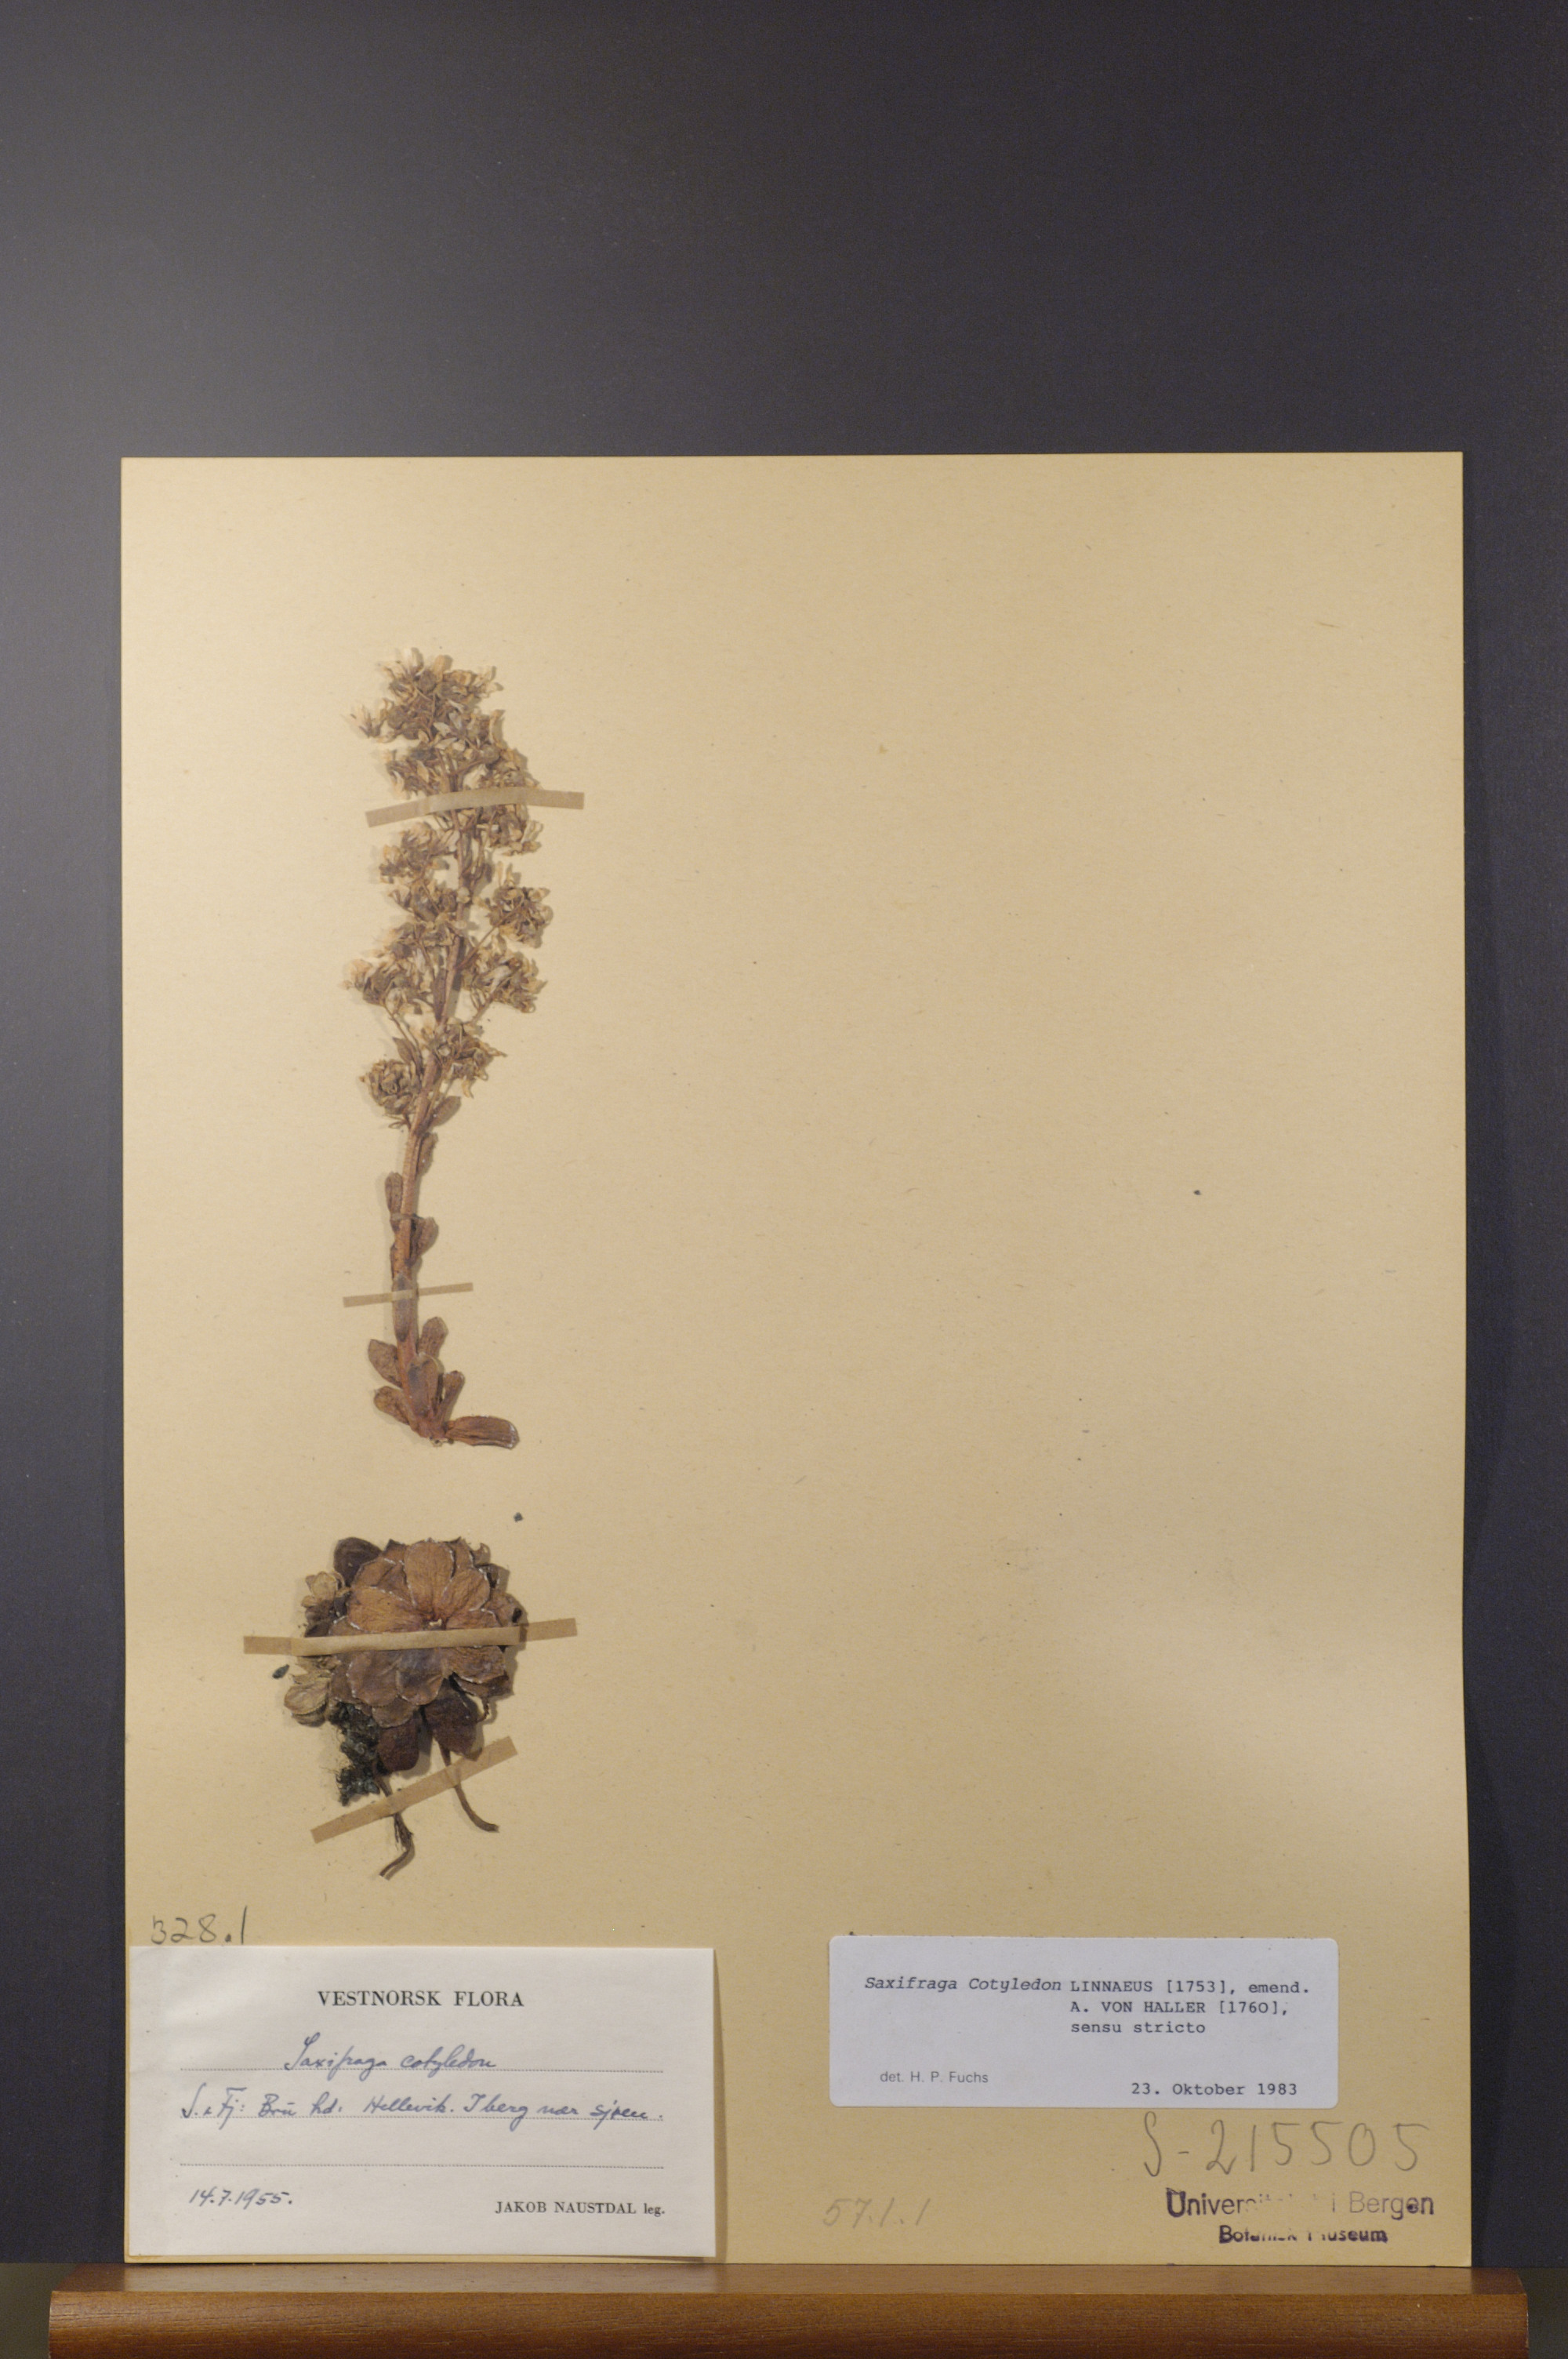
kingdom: Plantae
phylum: Tracheophyta
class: Magnoliopsida
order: Saxifragales
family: Saxifragaceae
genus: Saxifraga
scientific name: Saxifraga cotyledon
